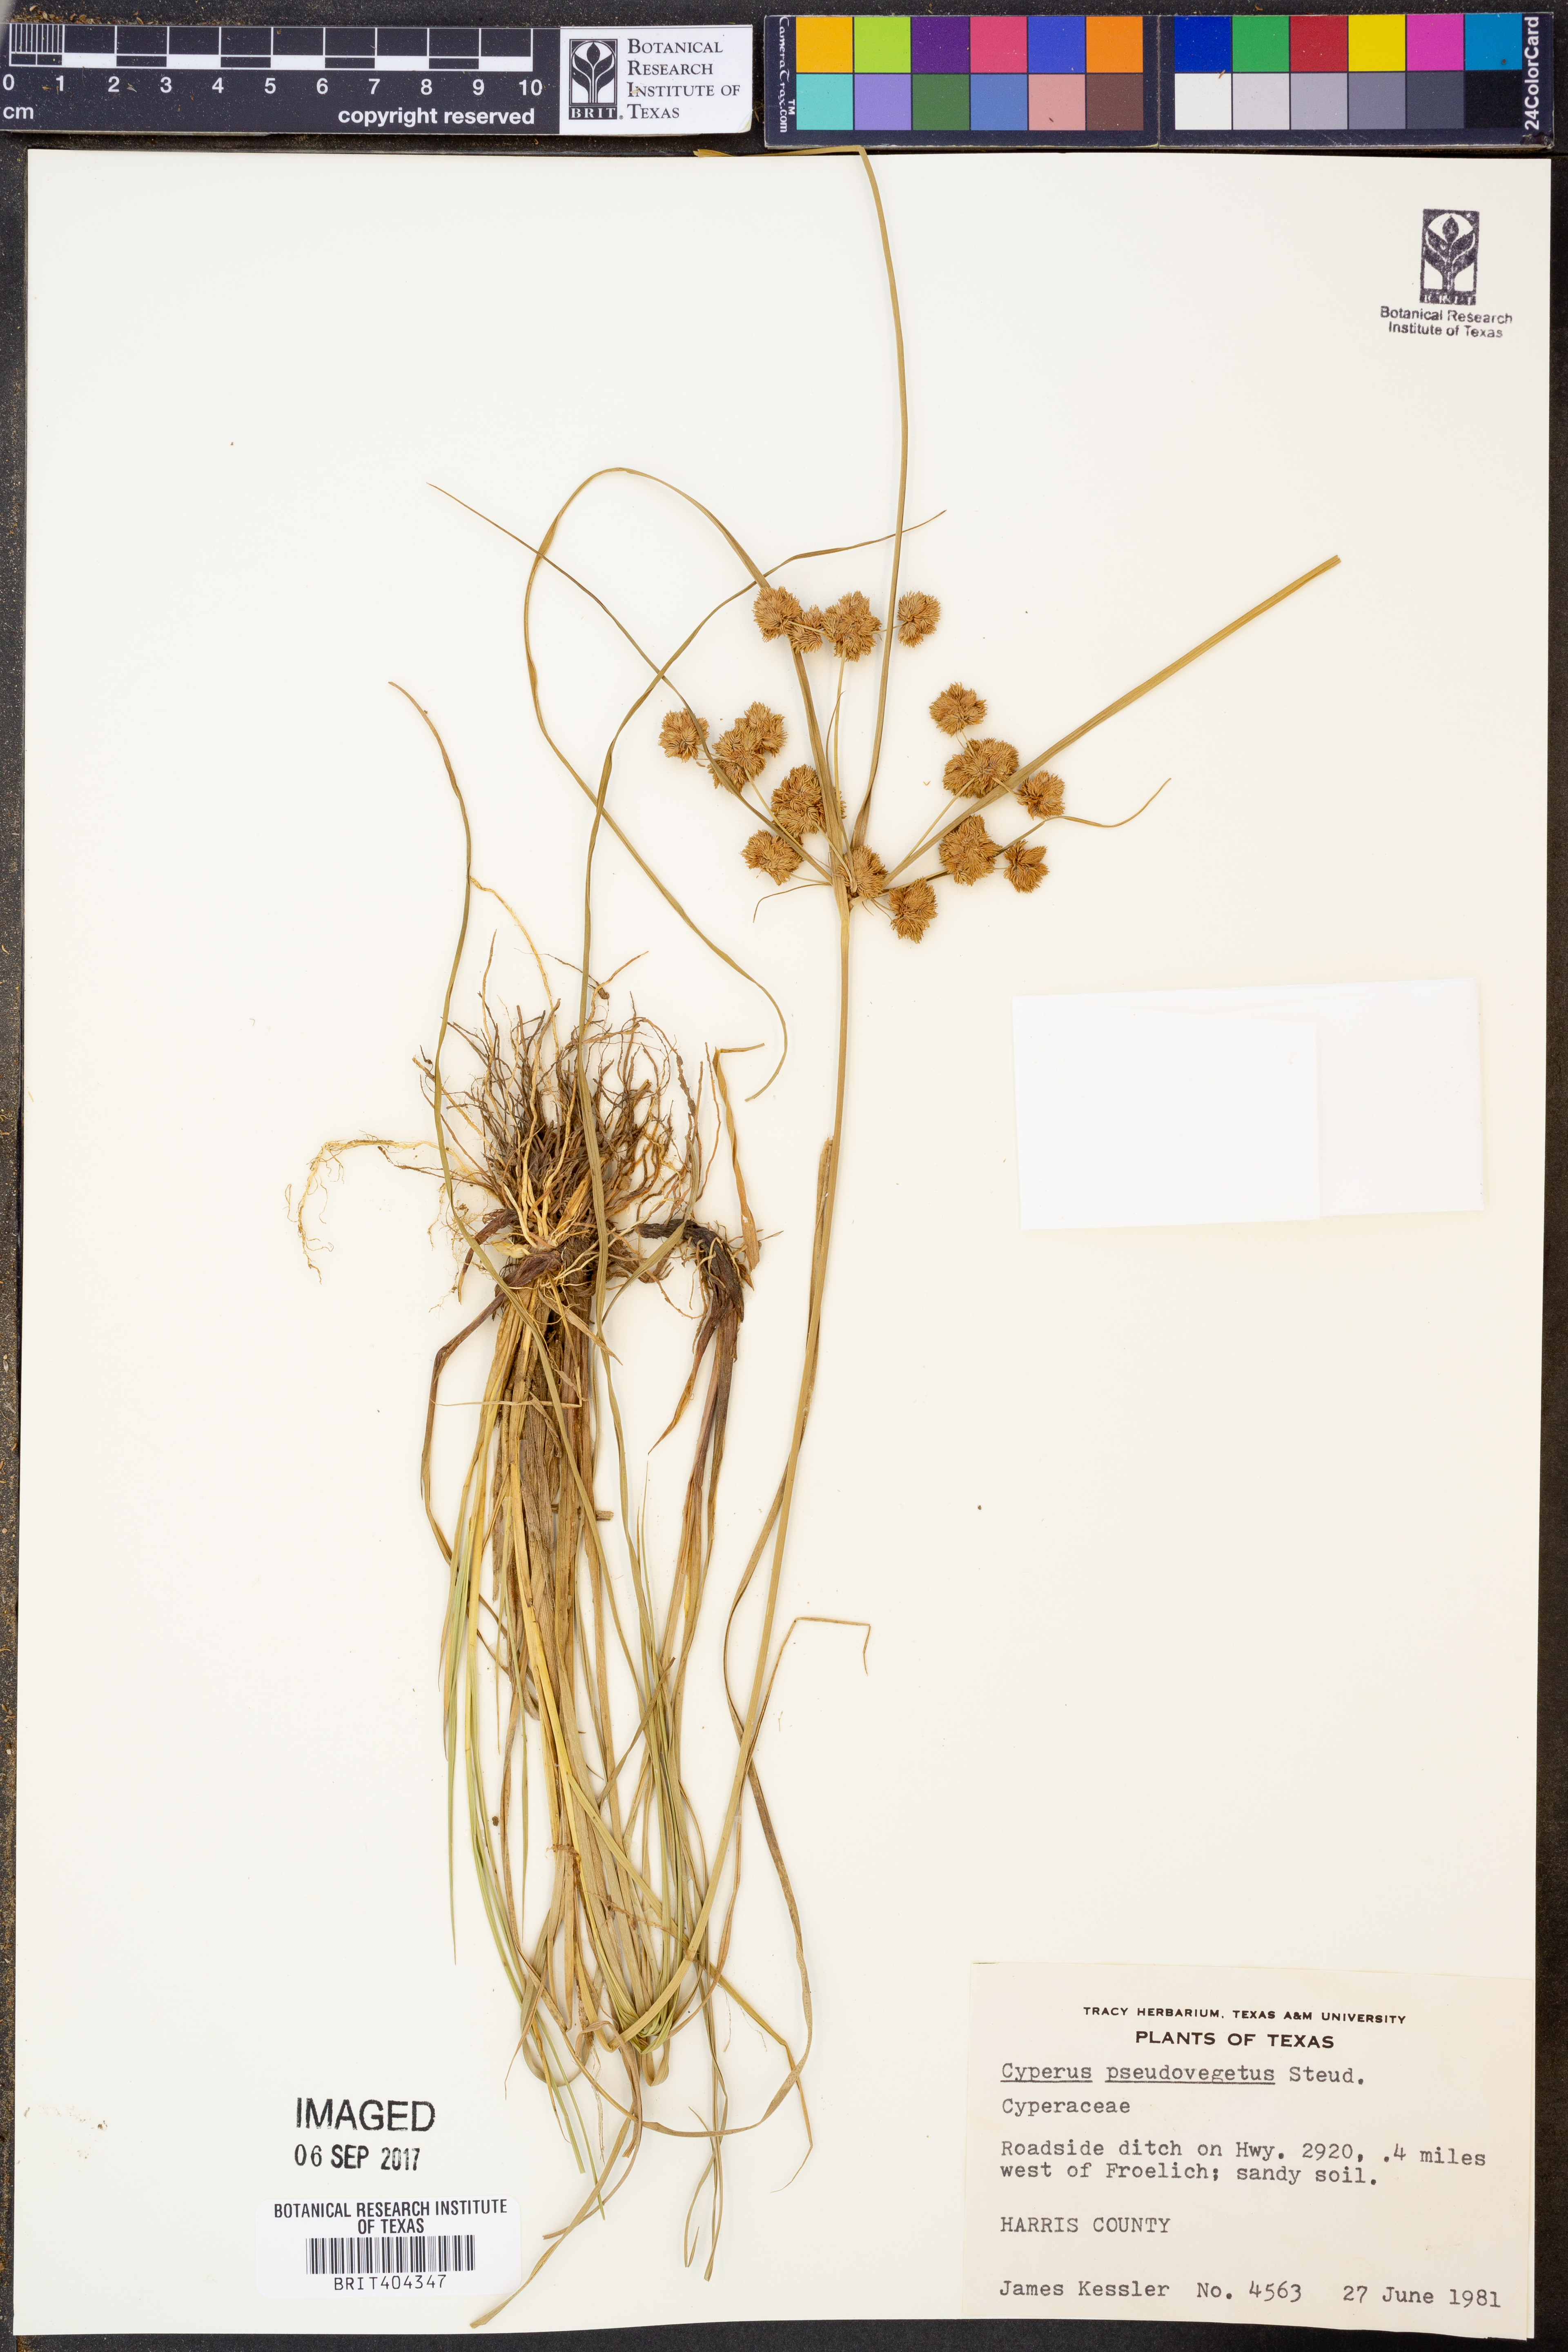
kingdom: Plantae
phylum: Tracheophyta
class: Liliopsida
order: Poales
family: Cyperaceae
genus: Cyperus
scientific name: Cyperus pseudovegetus
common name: Marsh flat sedge
